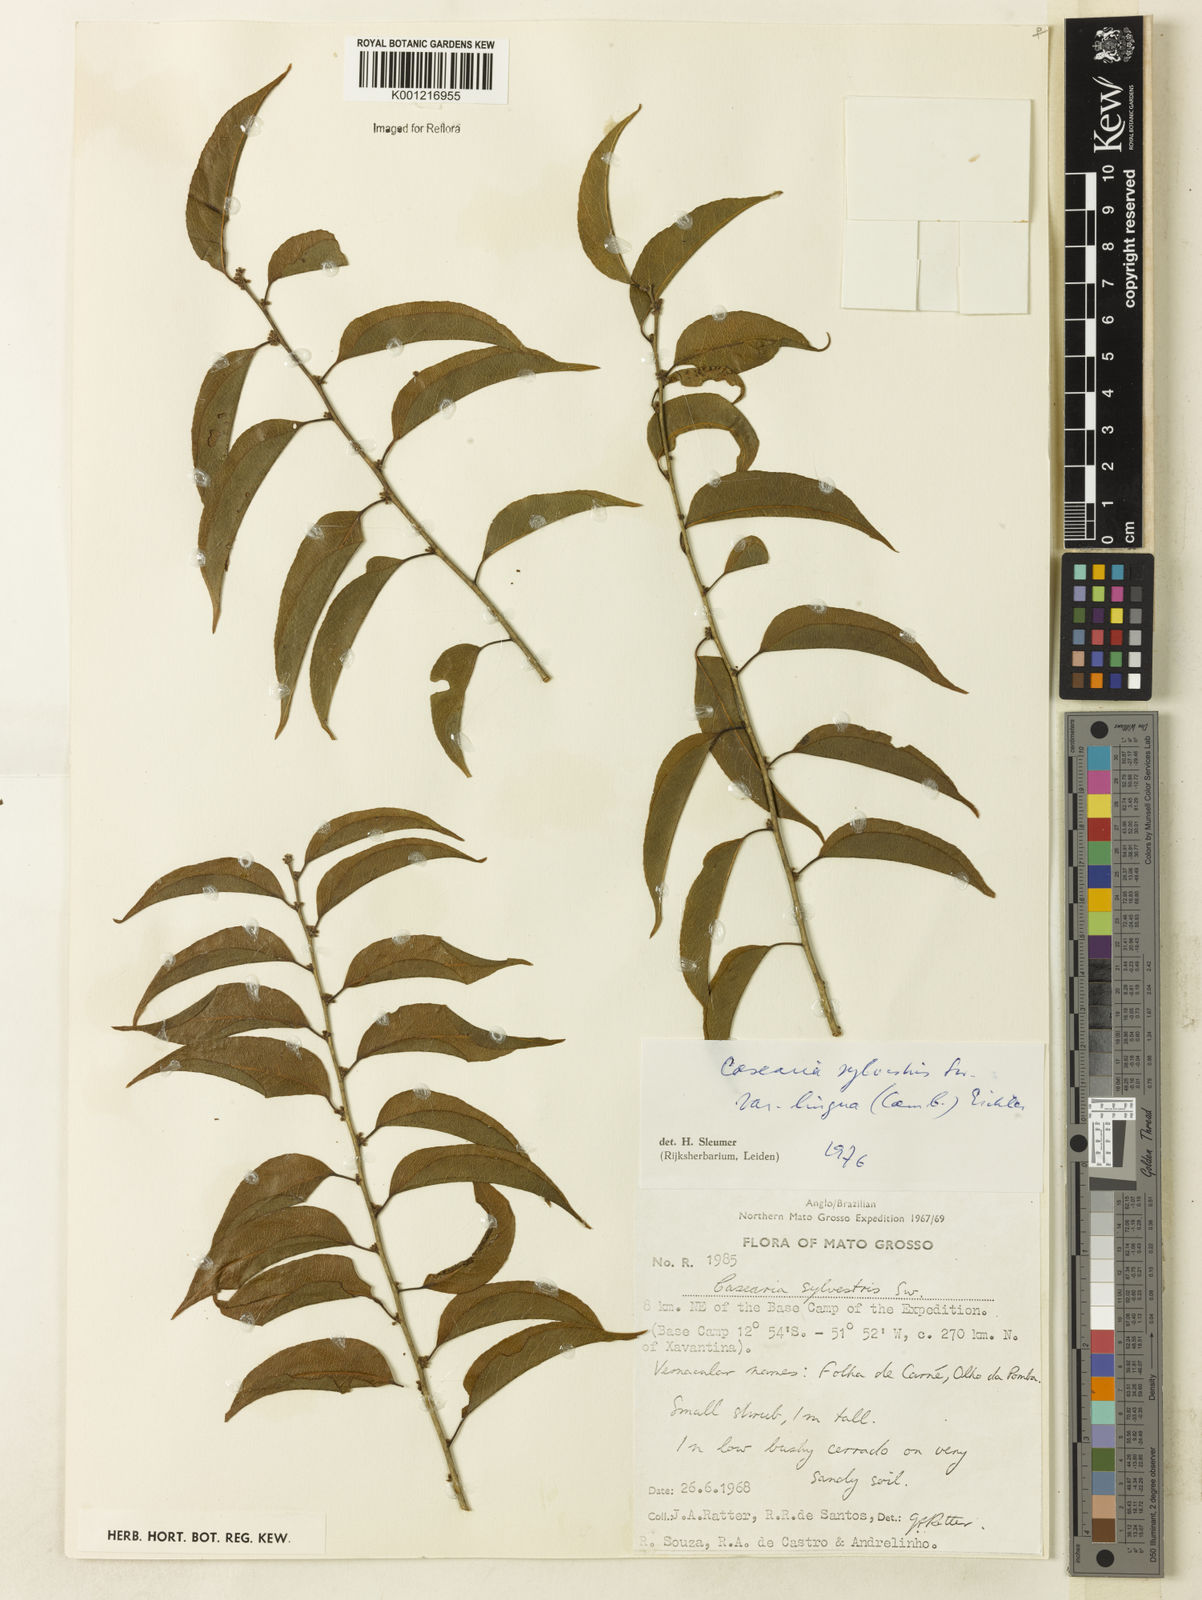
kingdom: Plantae
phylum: Tracheophyta
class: Magnoliopsida
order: Malpighiales
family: Salicaceae
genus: Casearia
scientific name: Casearia sylvestris
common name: Wild sage
